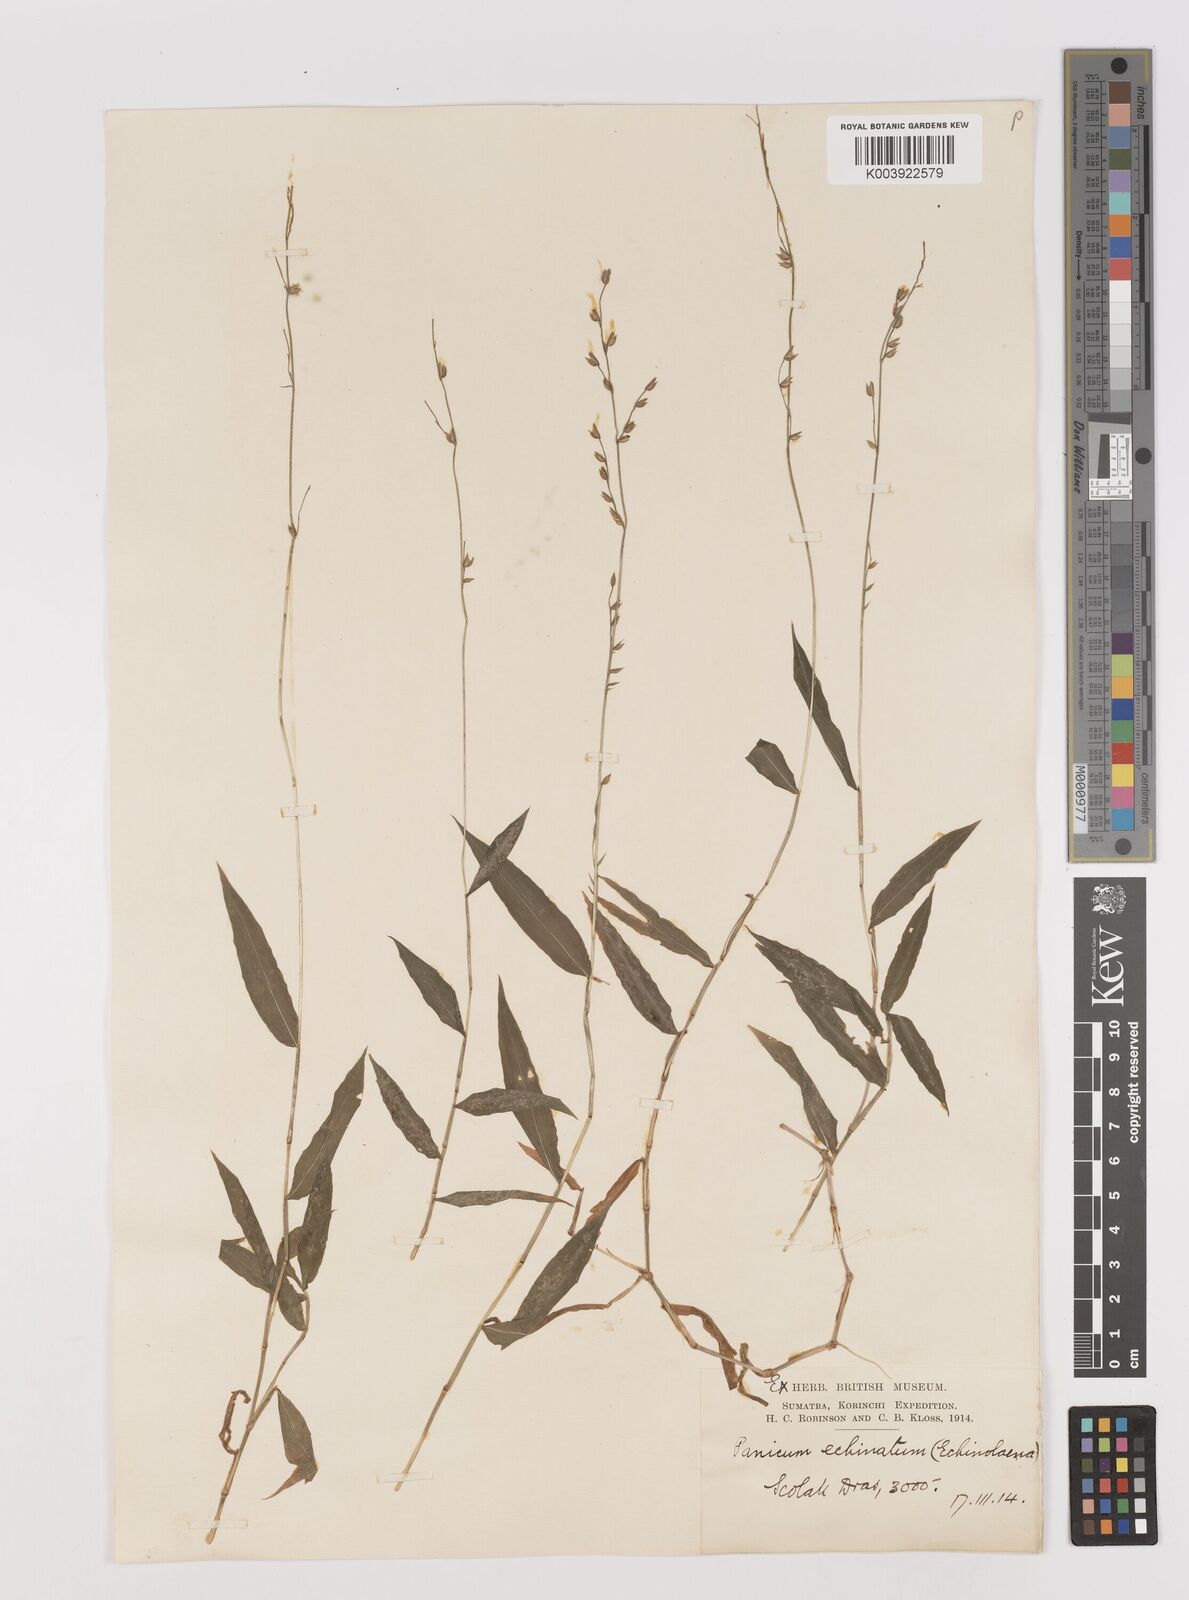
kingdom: Plantae
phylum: Tracheophyta
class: Liliopsida
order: Poales
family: Poaceae
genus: Pseudechinolaena
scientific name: Pseudechinolaena polystachya
